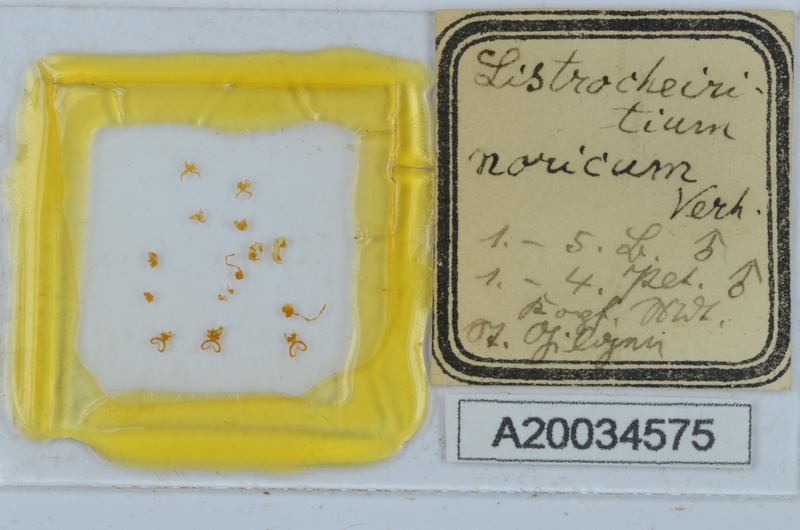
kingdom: Animalia
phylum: Arthropoda
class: Diplopoda
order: Chordeumatida
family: Craspedosomatidae
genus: Listrocheiritium
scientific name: Listrocheiritium noricum
